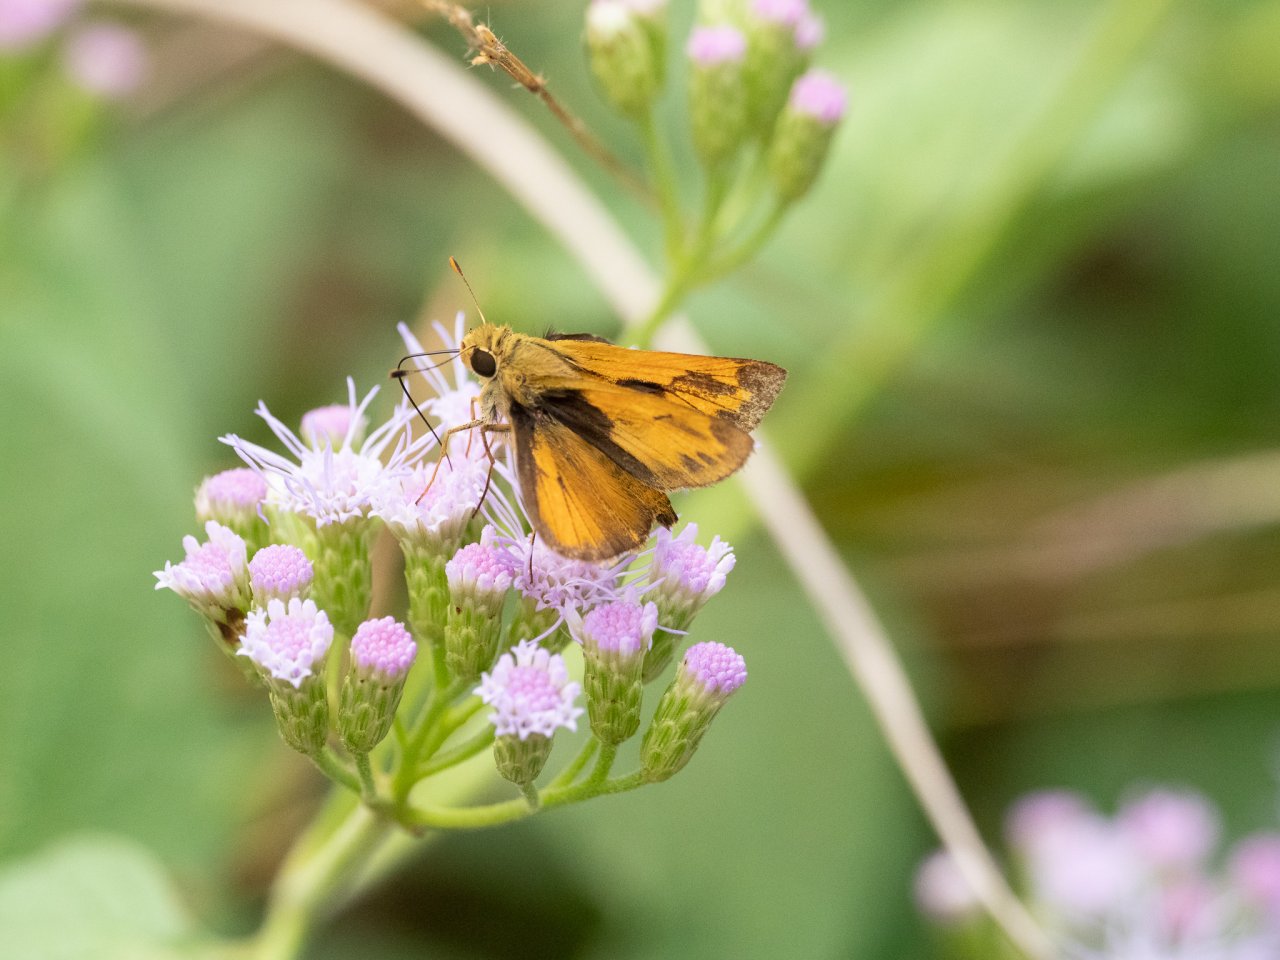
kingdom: Animalia
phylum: Arthropoda
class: Insecta
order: Lepidoptera
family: Hesperiidae
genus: Hylephila
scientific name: Hylephila phyleus
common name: Fiery Skipper
